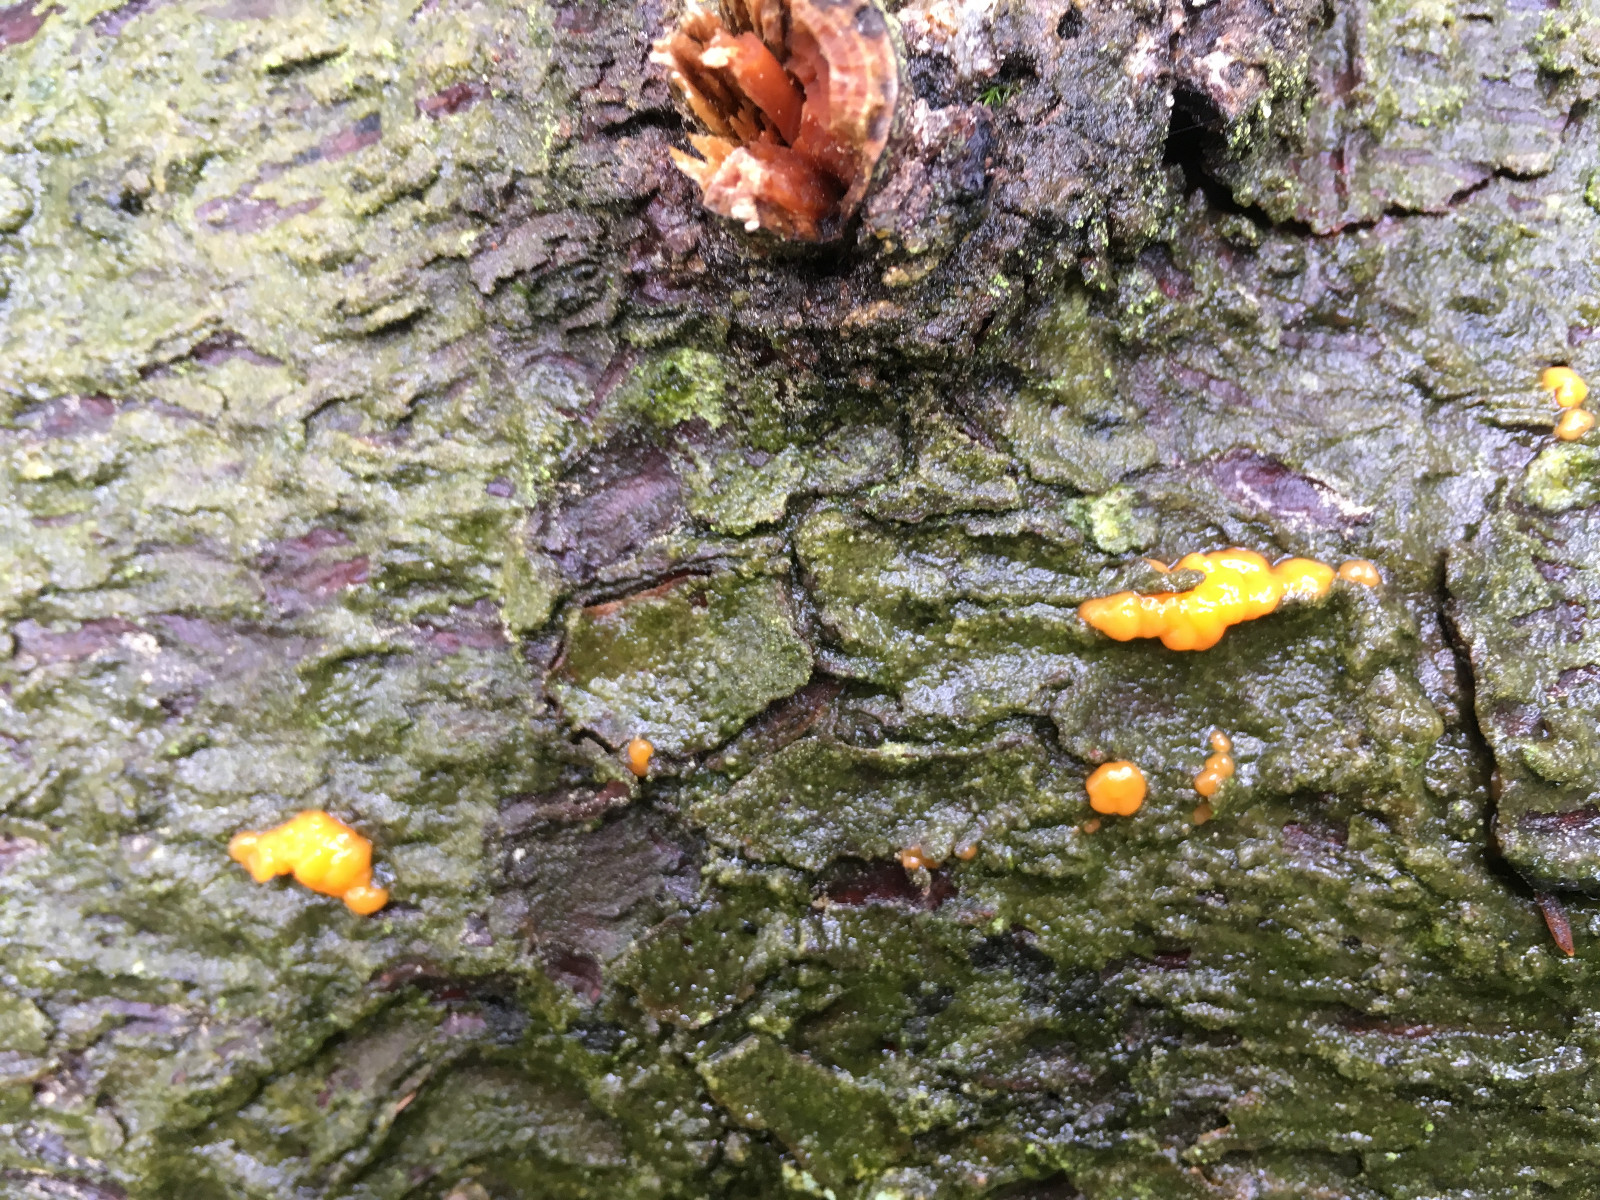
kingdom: Fungi
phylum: Basidiomycota
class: Dacrymycetes
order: Dacrymycetales
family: Dacrymycetaceae
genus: Dacrymyces
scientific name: Dacrymyces stillatus
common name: almindelig tåresvamp
